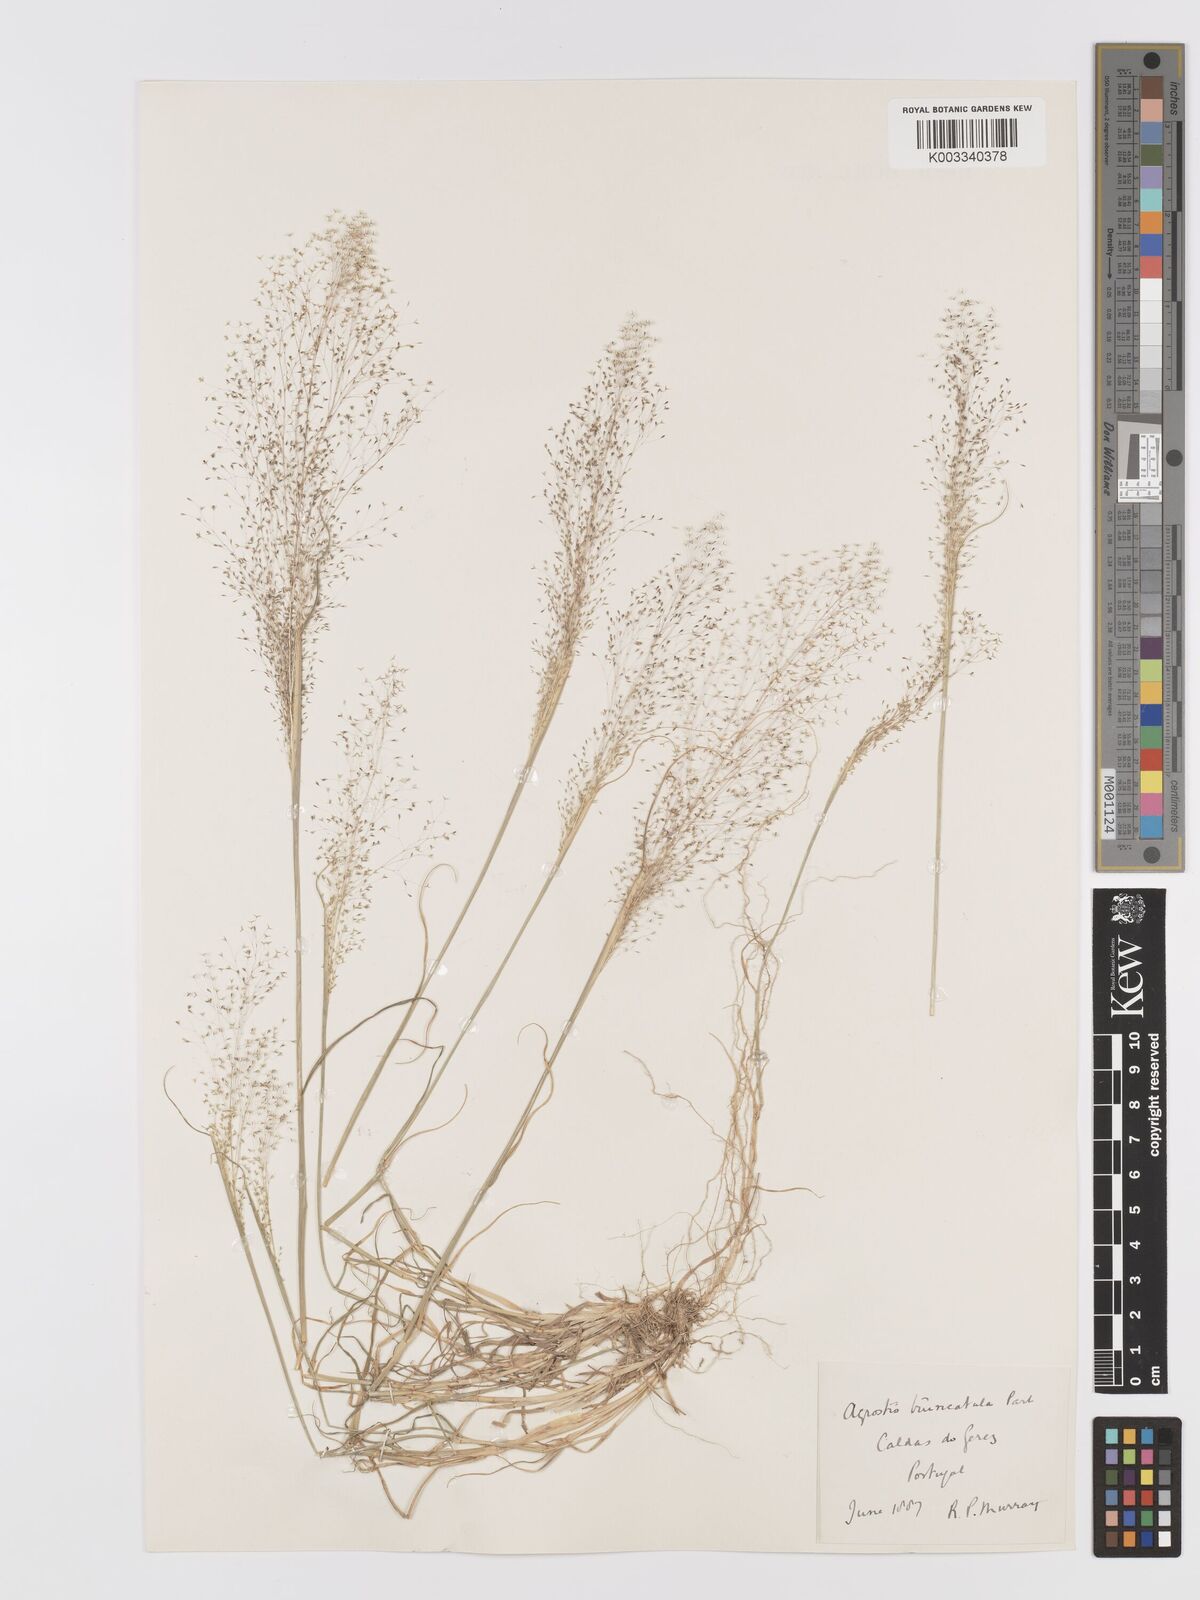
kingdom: Plantae
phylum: Tracheophyta
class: Liliopsida
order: Poales
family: Poaceae
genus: Agrostis
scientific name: Agrostis castellana
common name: Highland bent
